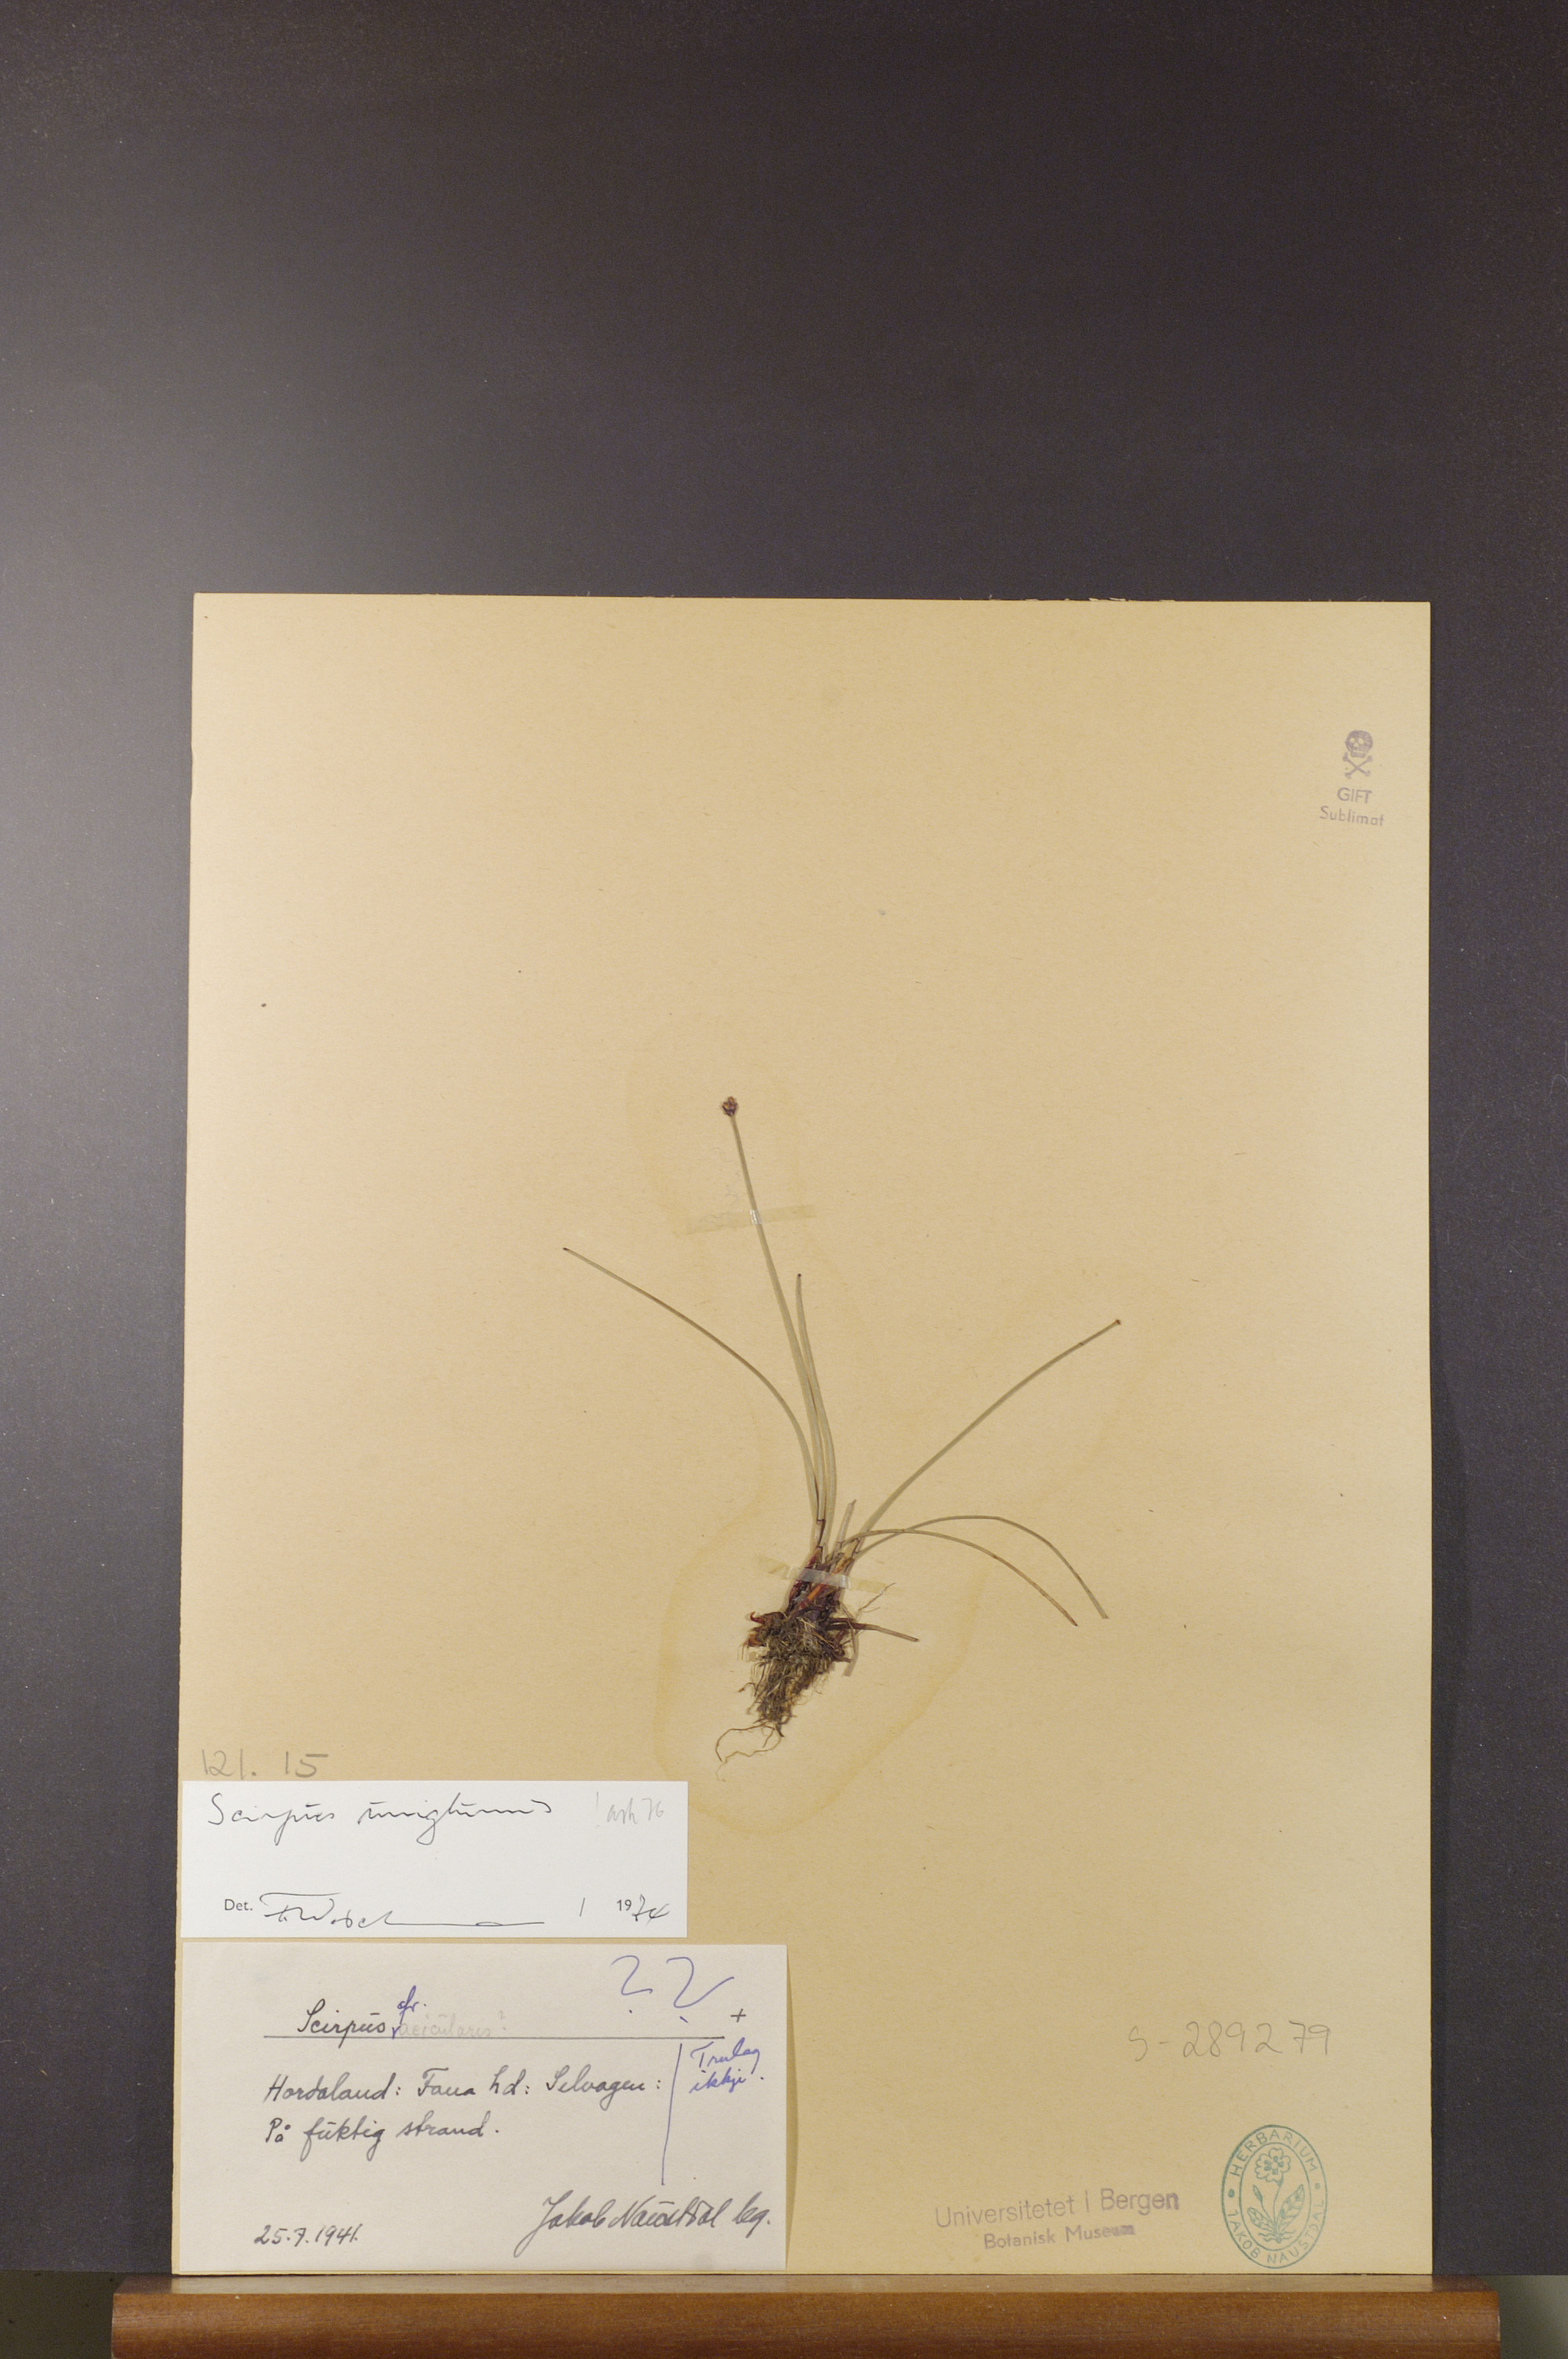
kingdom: Plantae
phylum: Tracheophyta
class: Liliopsida
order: Poales
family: Cyperaceae
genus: Eleocharis
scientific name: Eleocharis uniglumis
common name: Slender spike-rush
